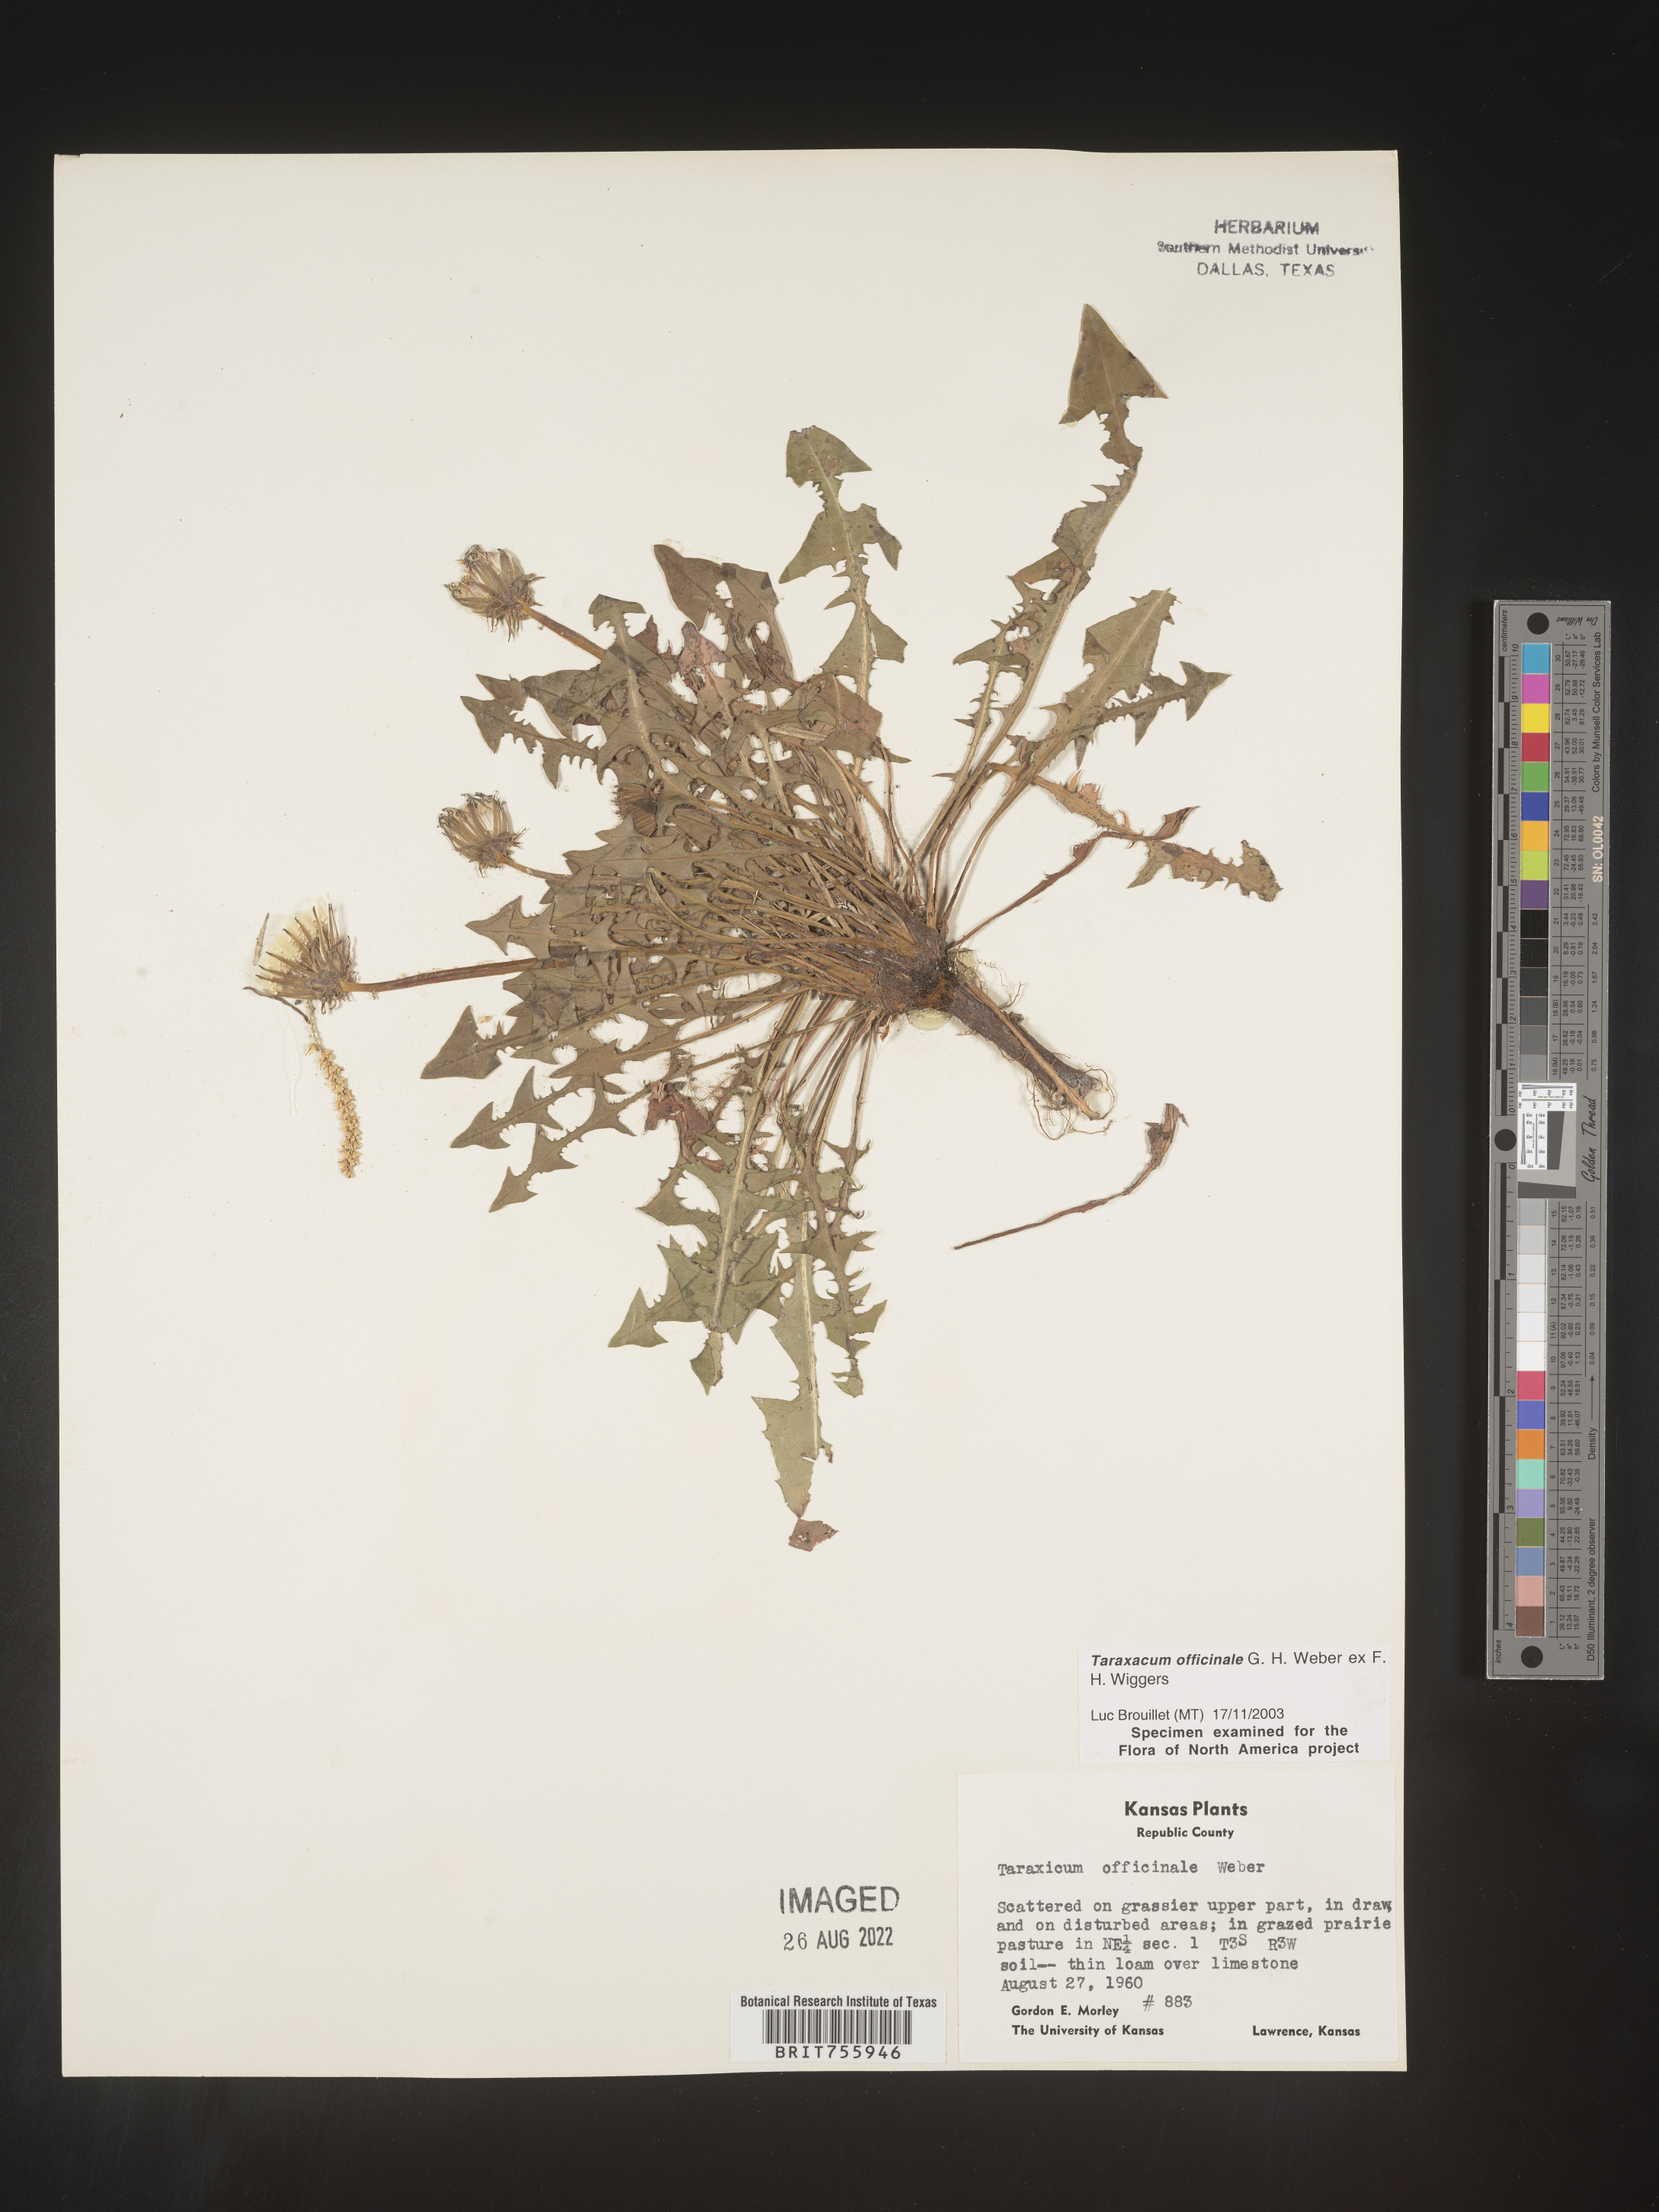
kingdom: Plantae
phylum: Tracheophyta
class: Magnoliopsida
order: Asterales
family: Asteraceae
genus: Taraxacum
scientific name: Taraxacum officinale
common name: Common dandelion
